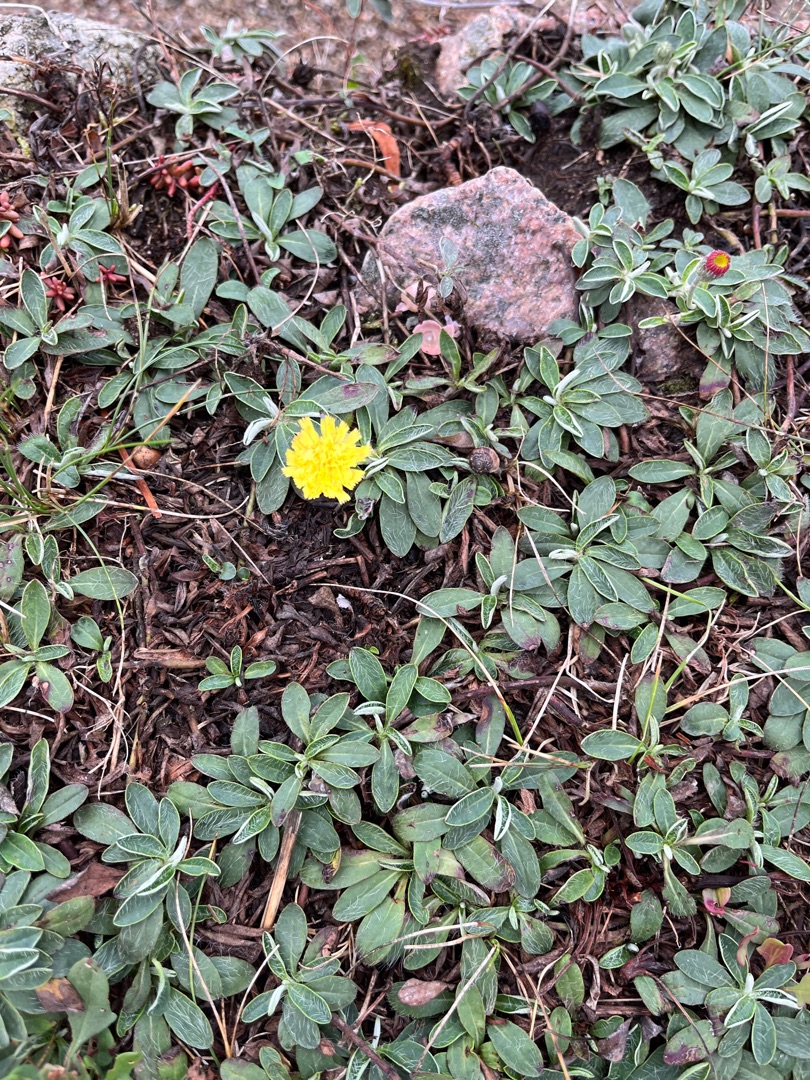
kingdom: Plantae
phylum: Tracheophyta
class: Magnoliopsida
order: Asterales
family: Asteraceae
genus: Pilosella
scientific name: Pilosella officinarum
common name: Håret høgeurt
